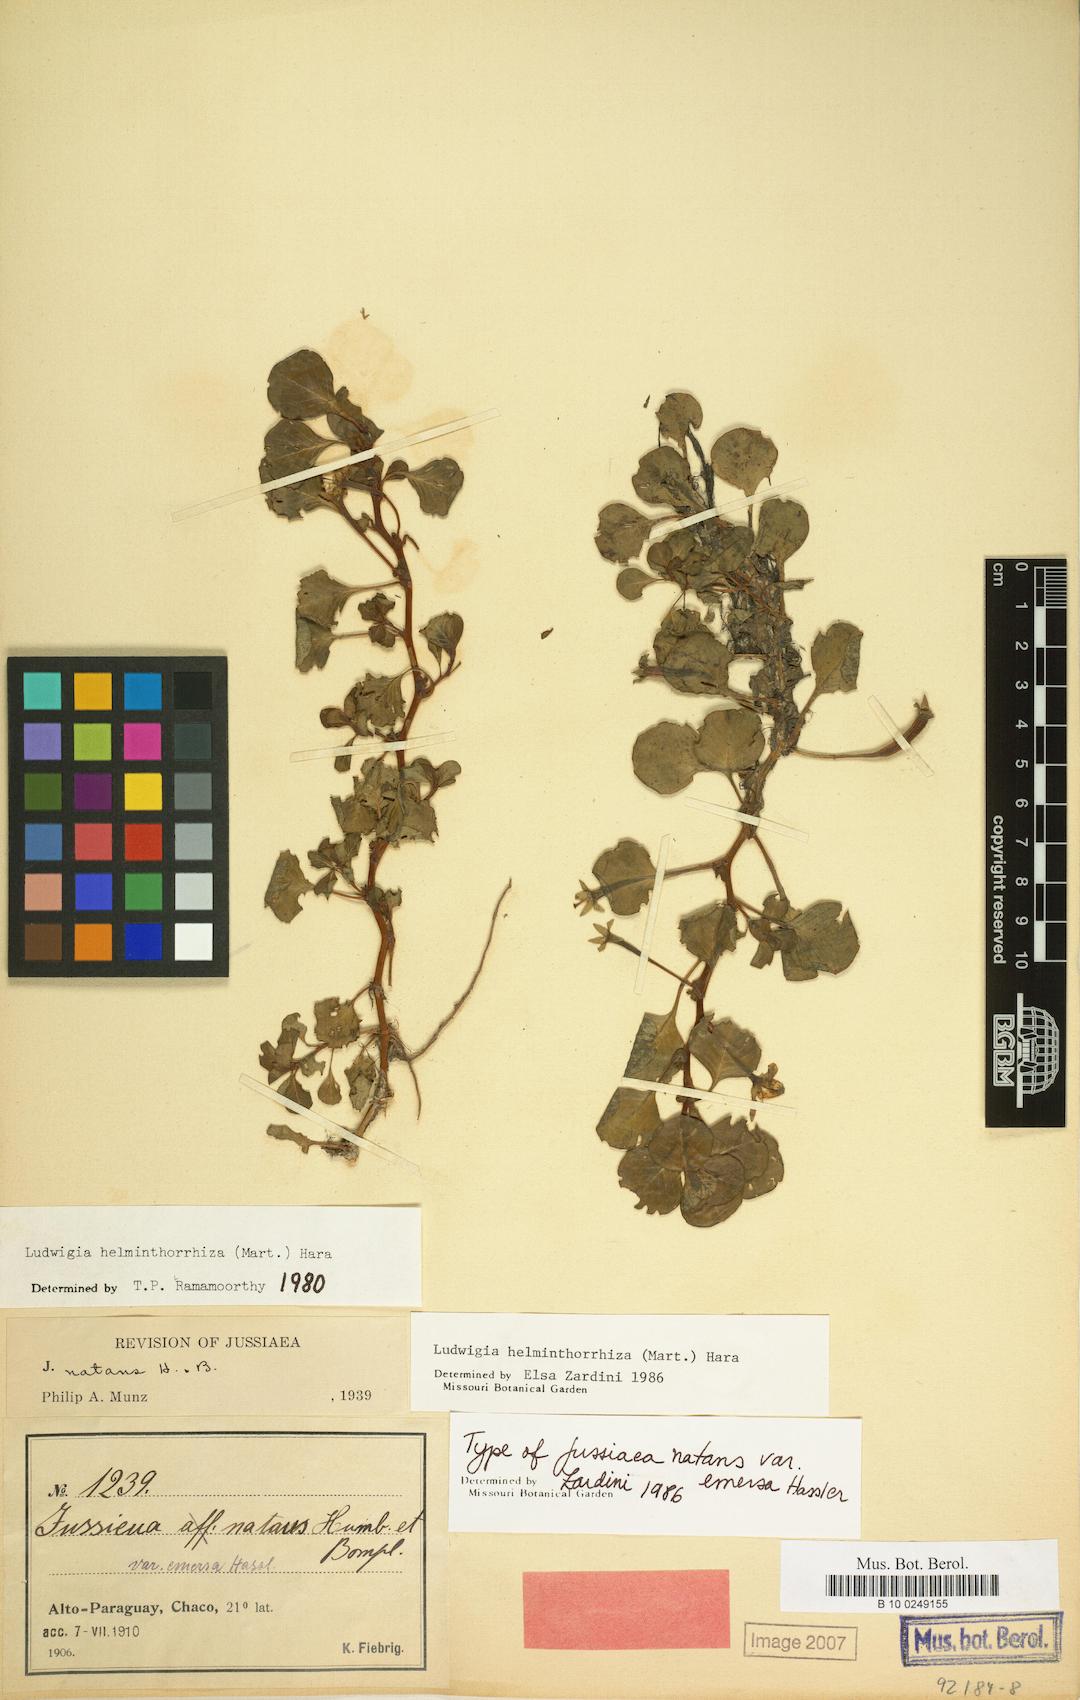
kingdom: Plantae
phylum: Tracheophyta
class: Magnoliopsida
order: Myrtales
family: Onagraceae
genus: Ludwigia
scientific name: Ludwigia helminthorrhiza
